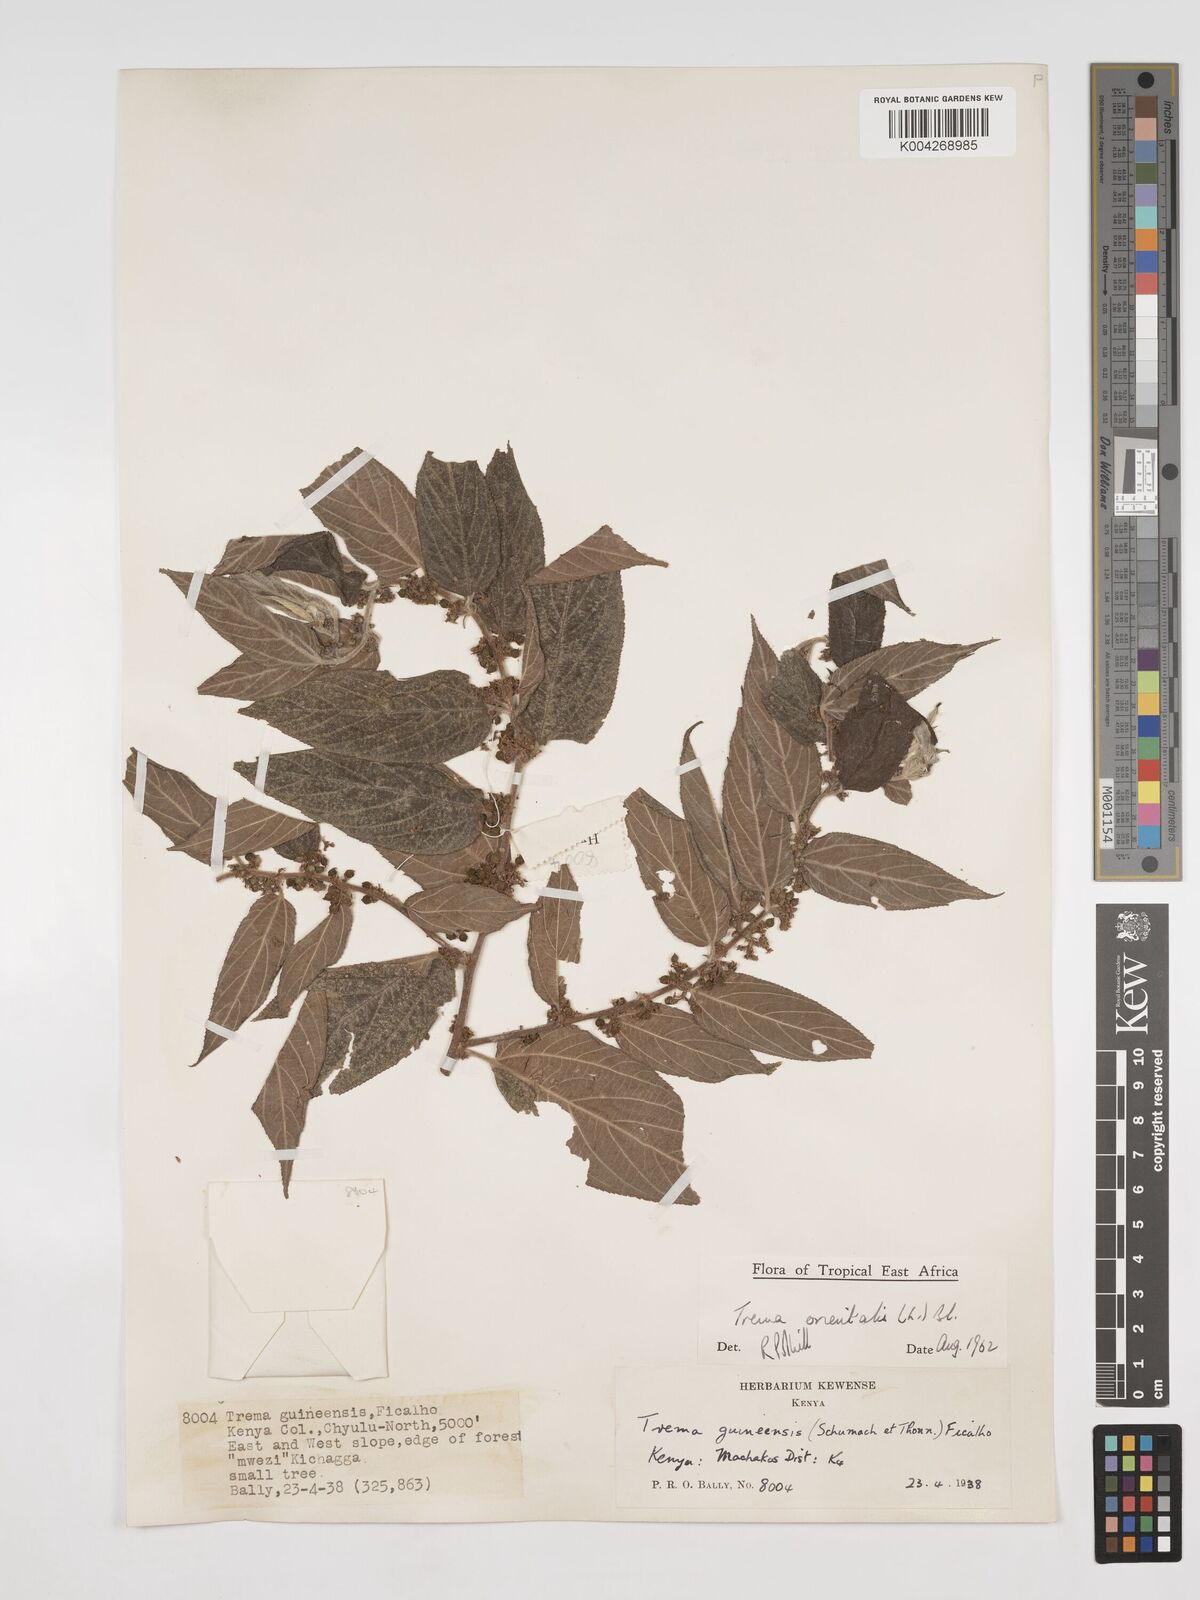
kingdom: Plantae
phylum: Tracheophyta
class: Magnoliopsida
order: Rosales
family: Cannabaceae
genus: Trema
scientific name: Trema orientale
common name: Indian charcoal tree
